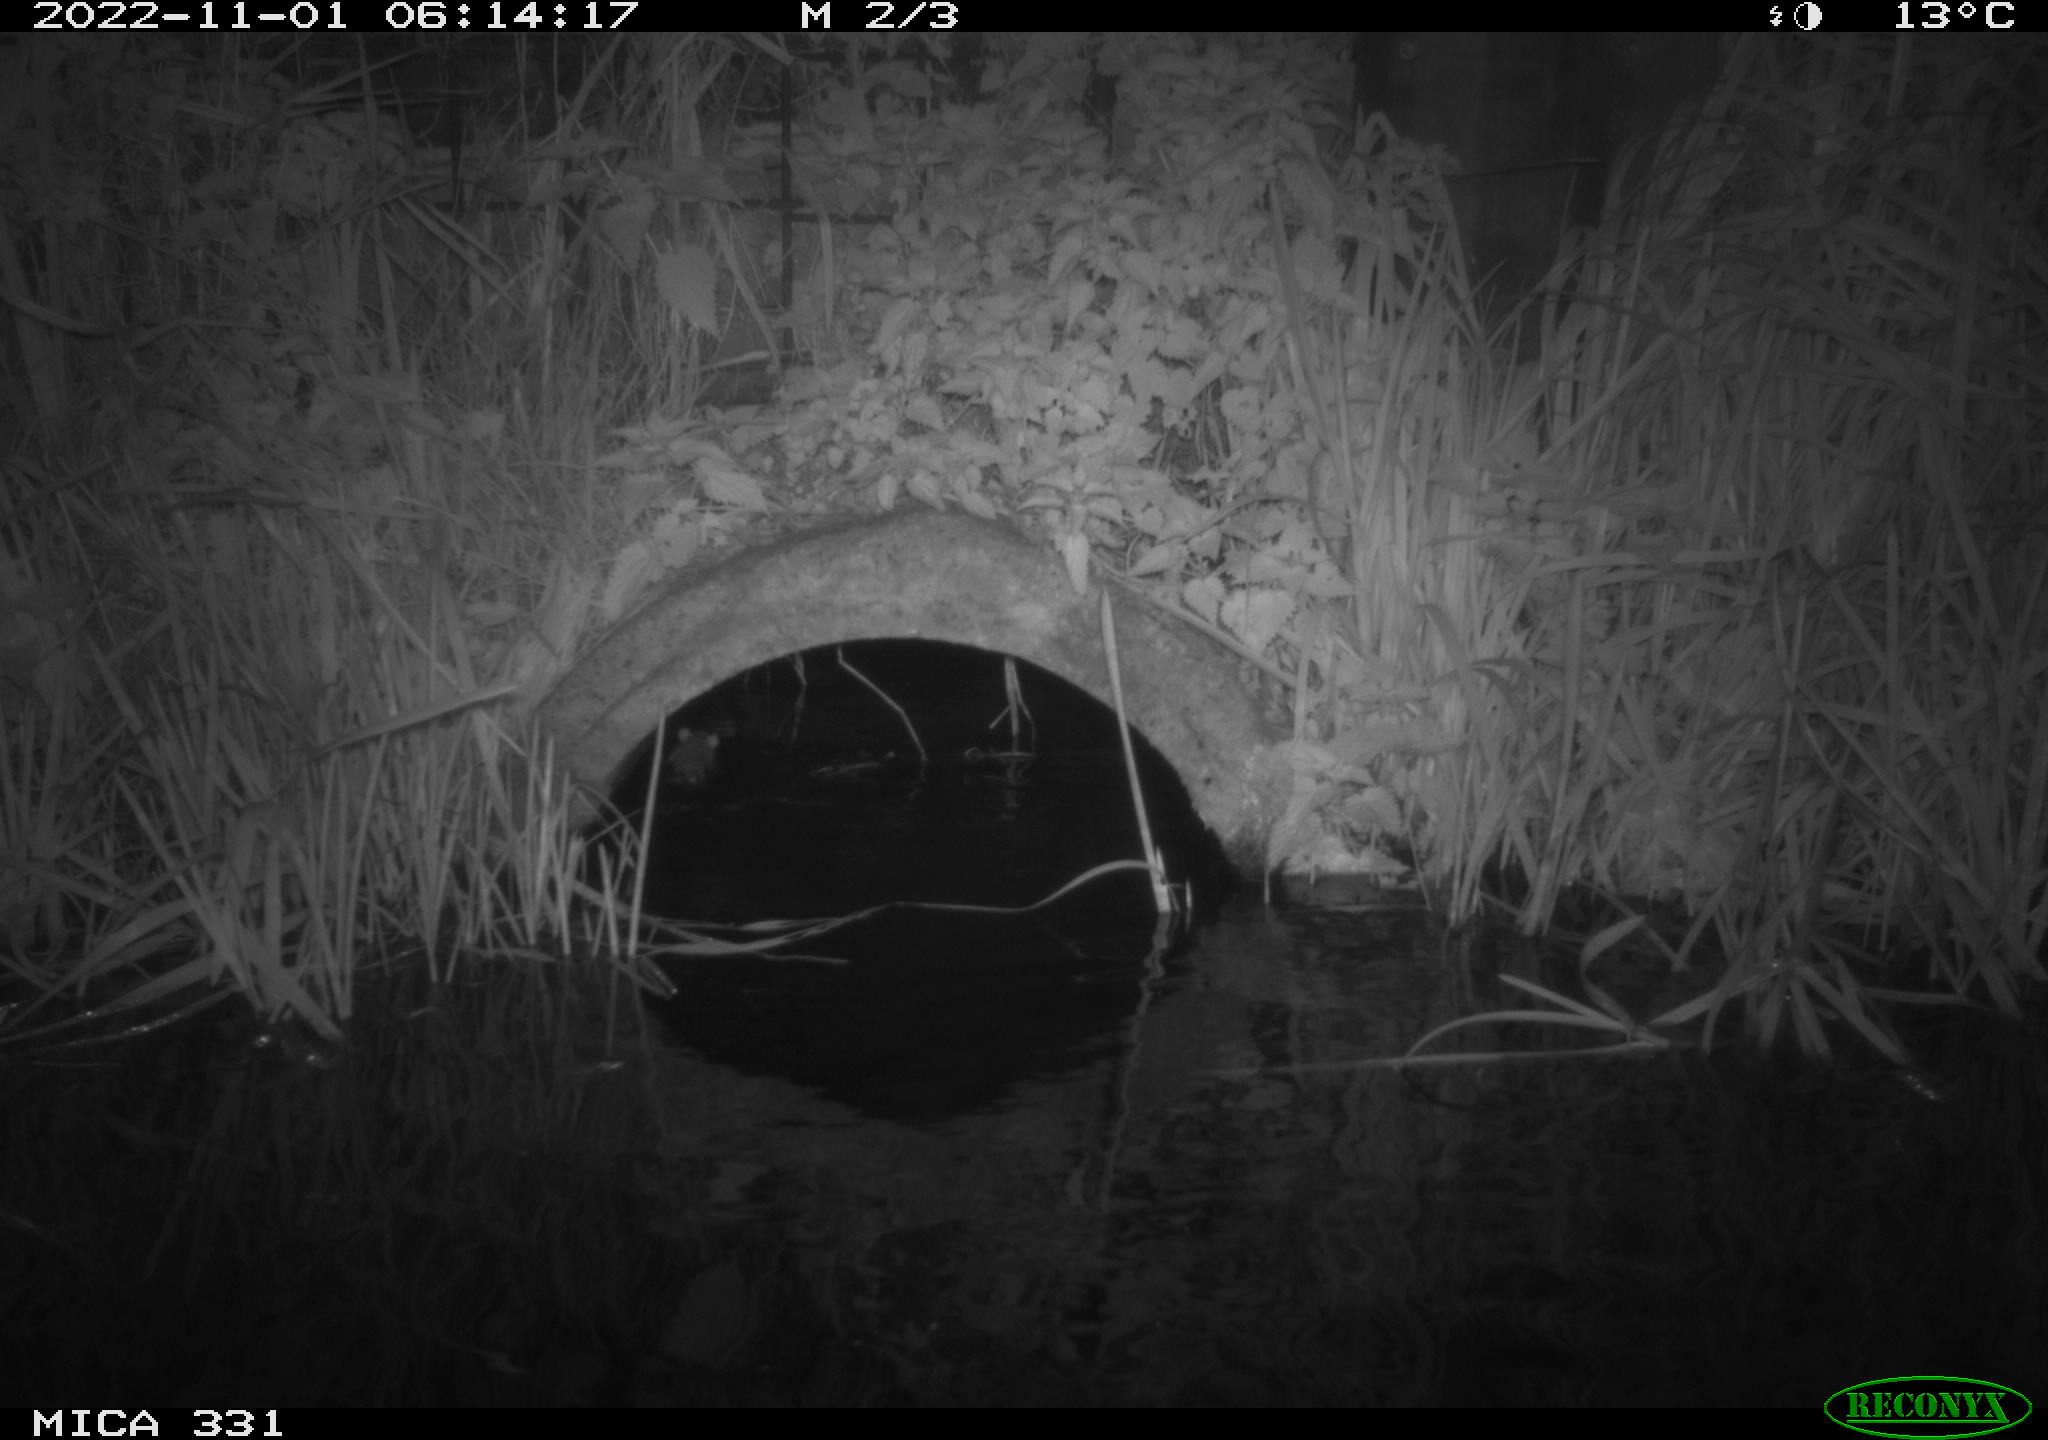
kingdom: Animalia
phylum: Chordata
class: Mammalia
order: Rodentia
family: Muridae
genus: Rattus
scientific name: Rattus norvegicus
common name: Brown rat
